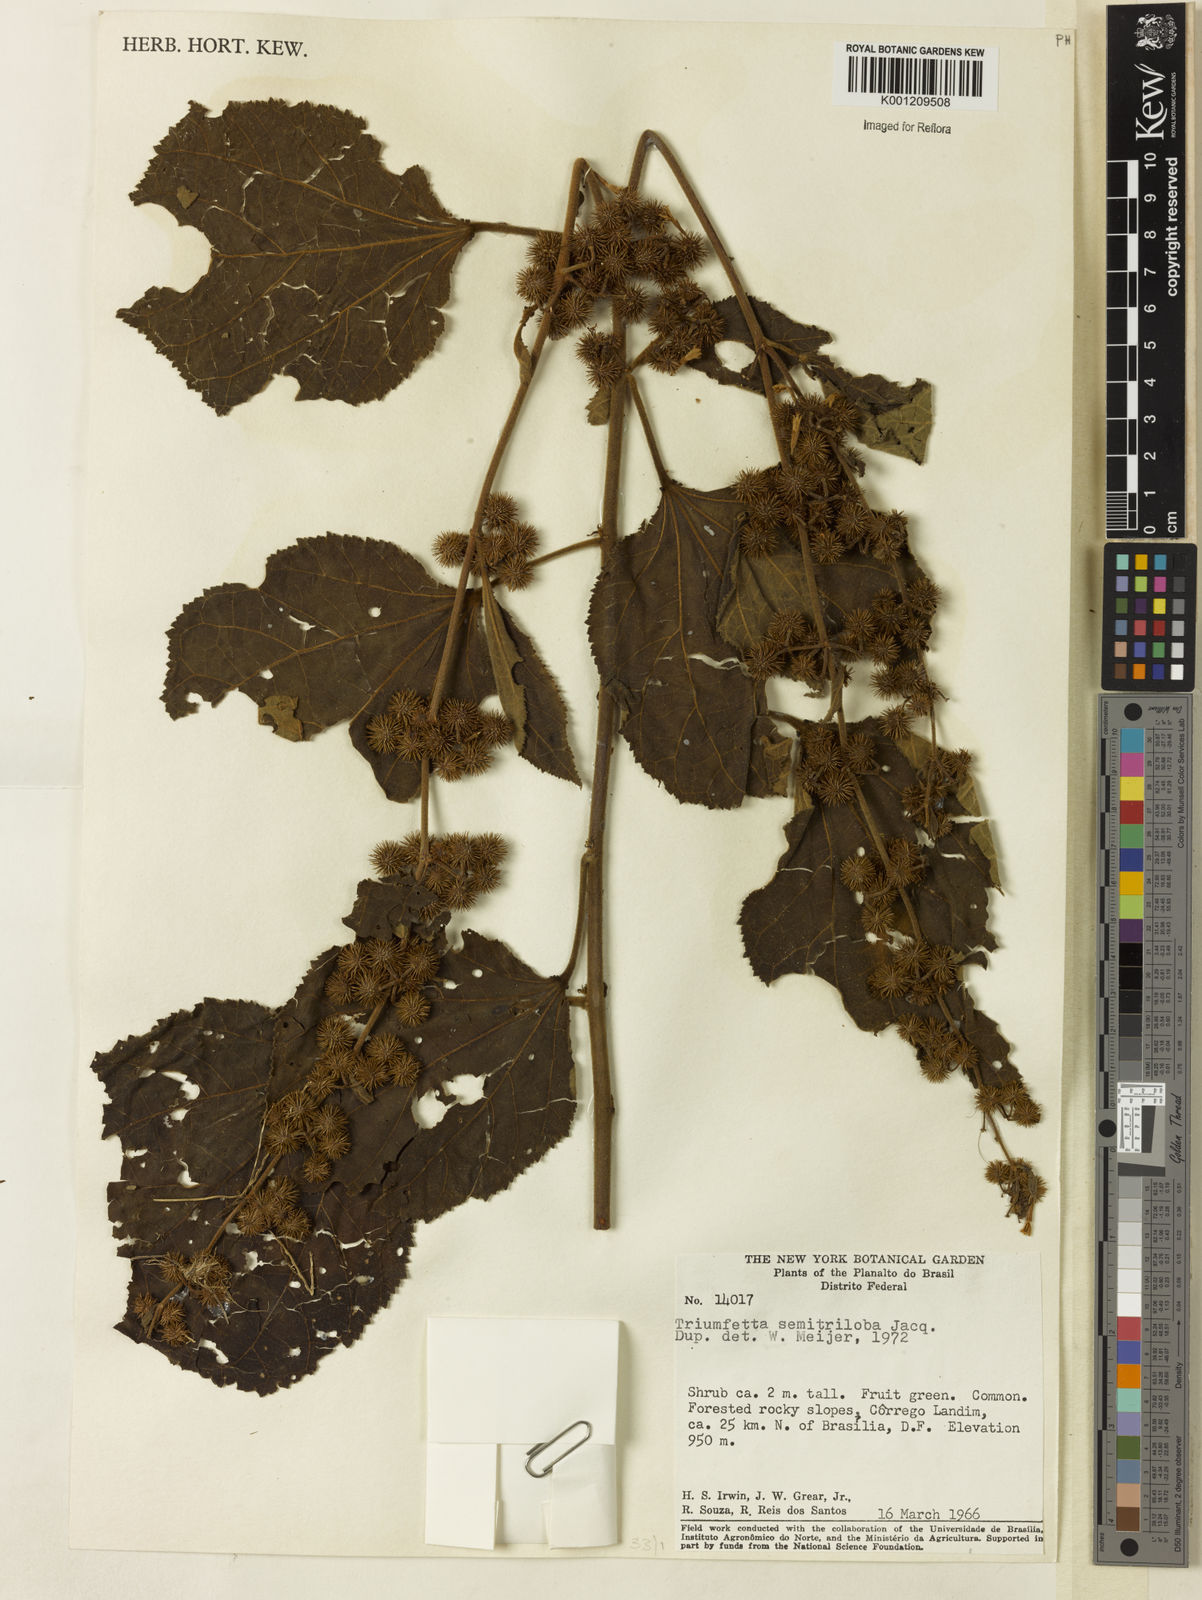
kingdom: Plantae
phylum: Tracheophyta
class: Magnoliopsida
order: Malvales
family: Malvaceae
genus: Triumfetta
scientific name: Triumfetta semitriloba
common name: Sacramento burbark
